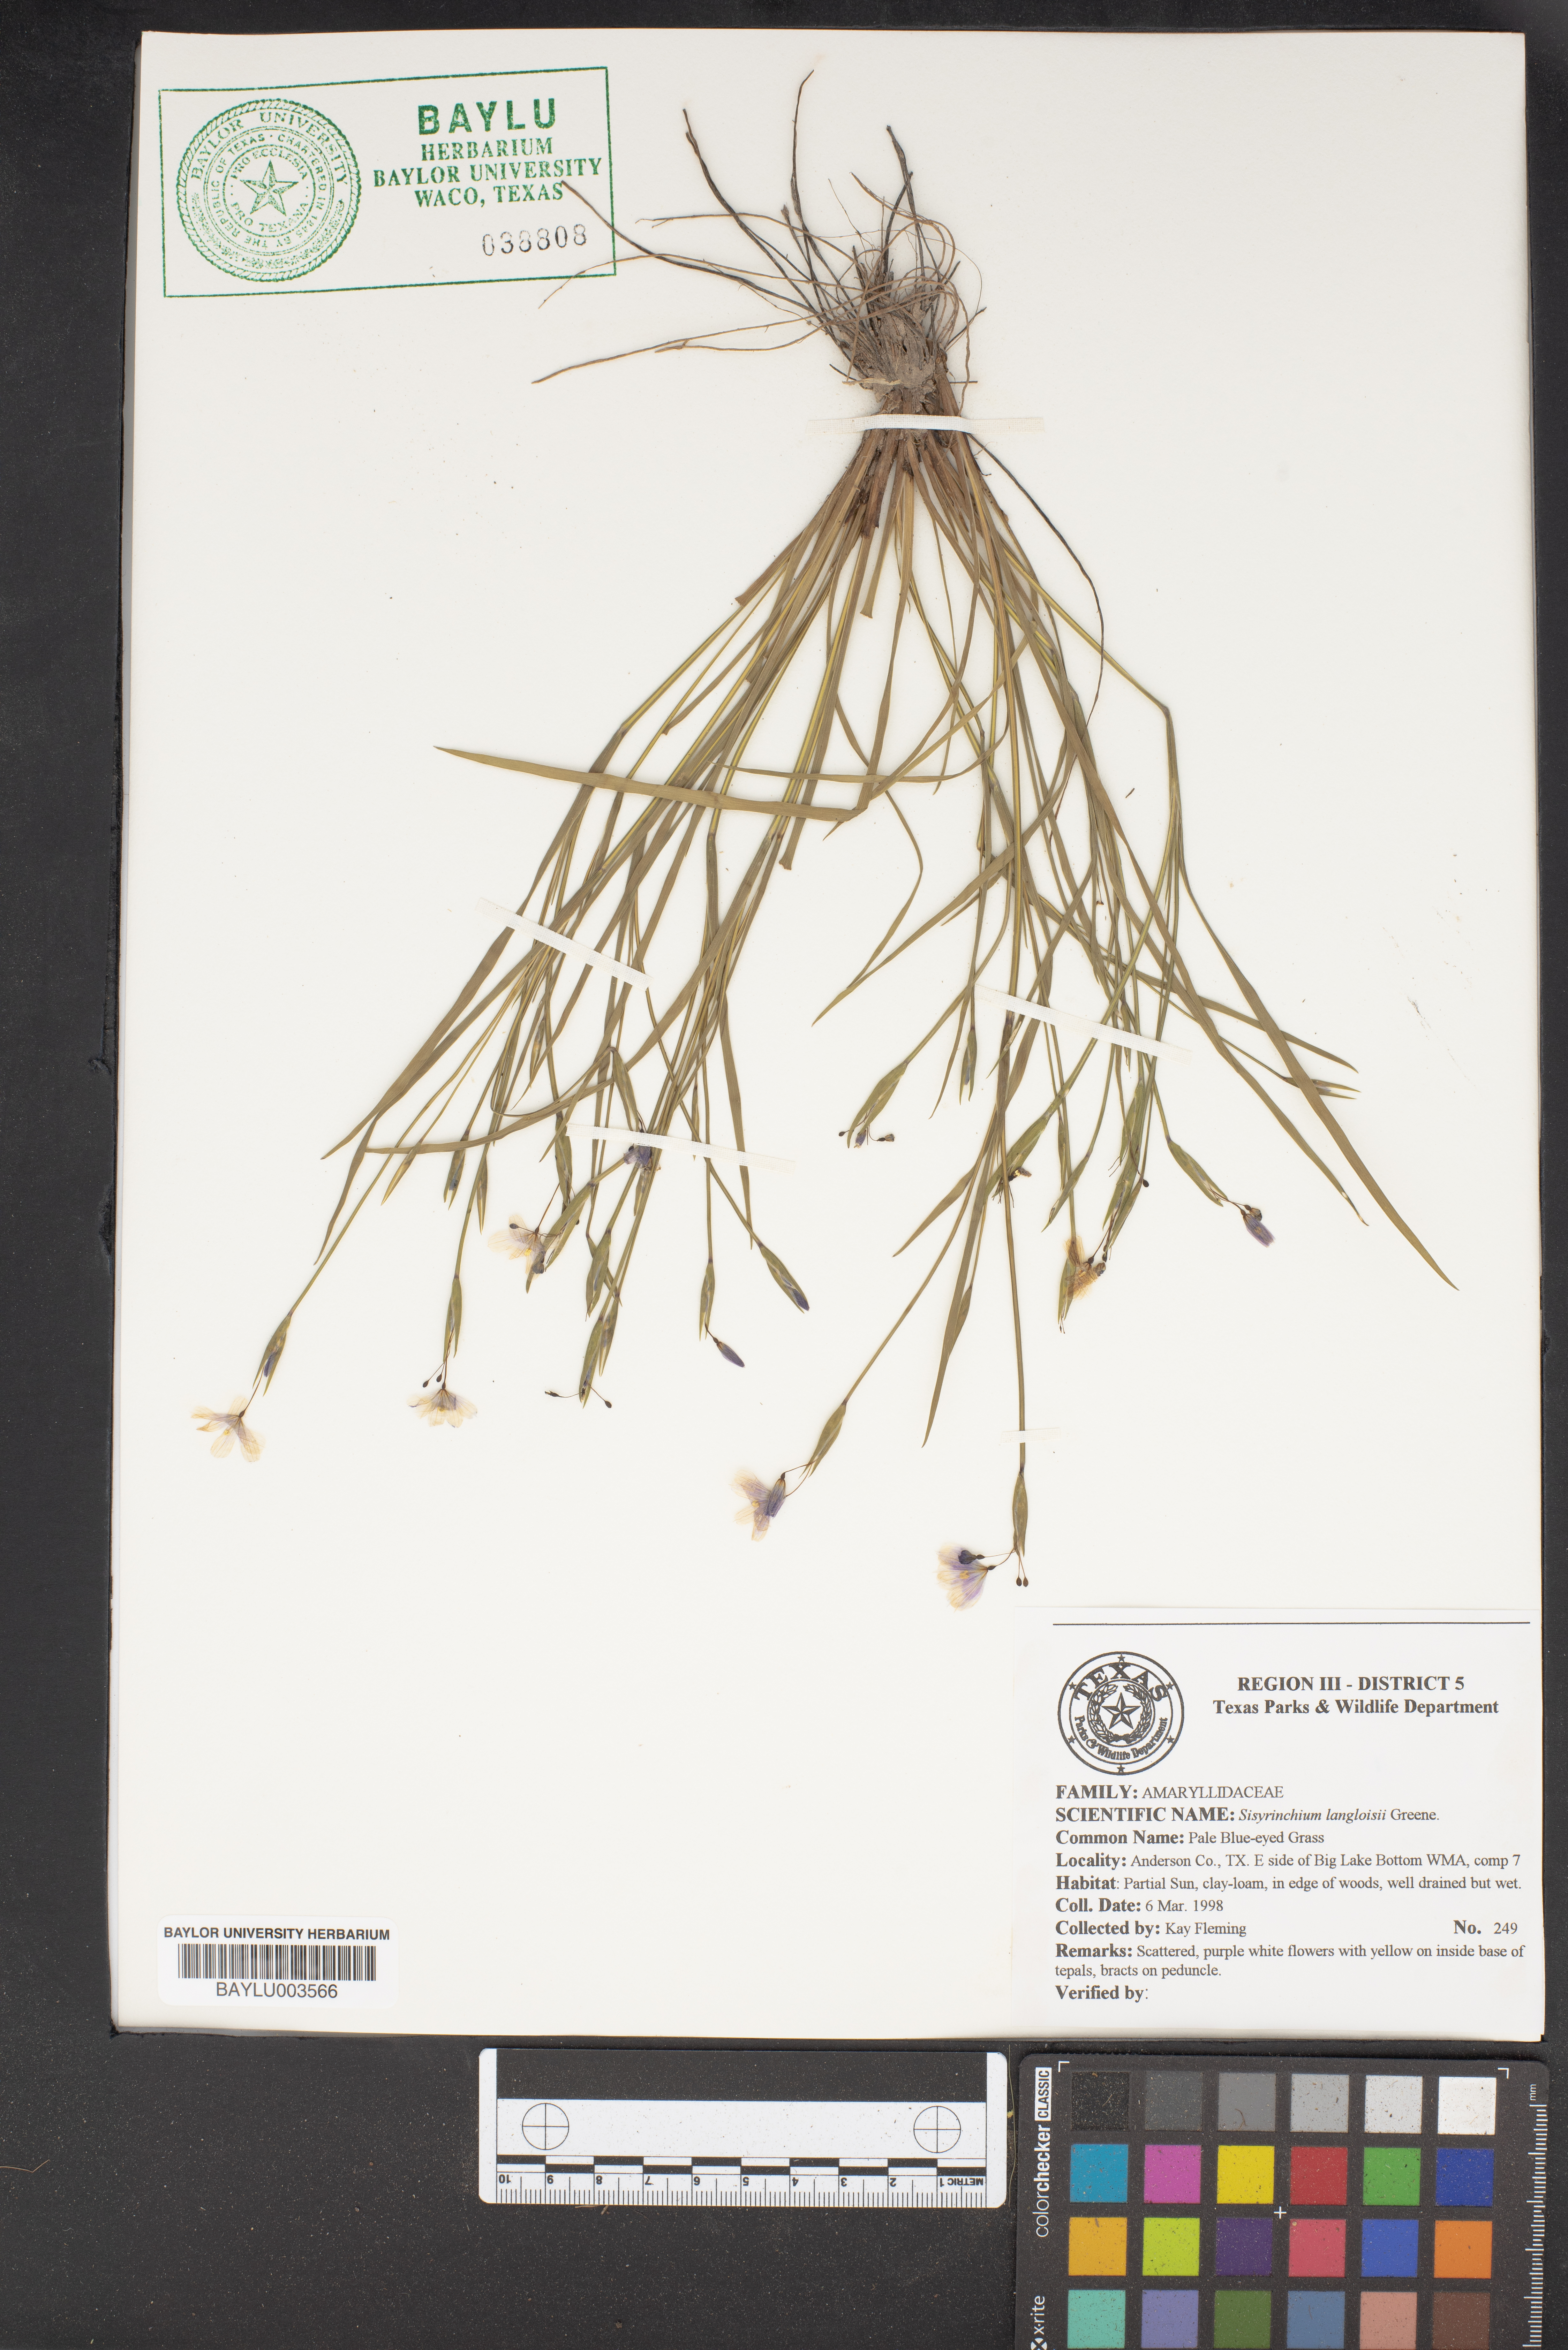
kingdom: Plantae
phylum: Tracheophyta
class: Liliopsida
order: Asparagales
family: Iridaceae
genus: Sisyrinchium
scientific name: Sisyrinchium langloisii
